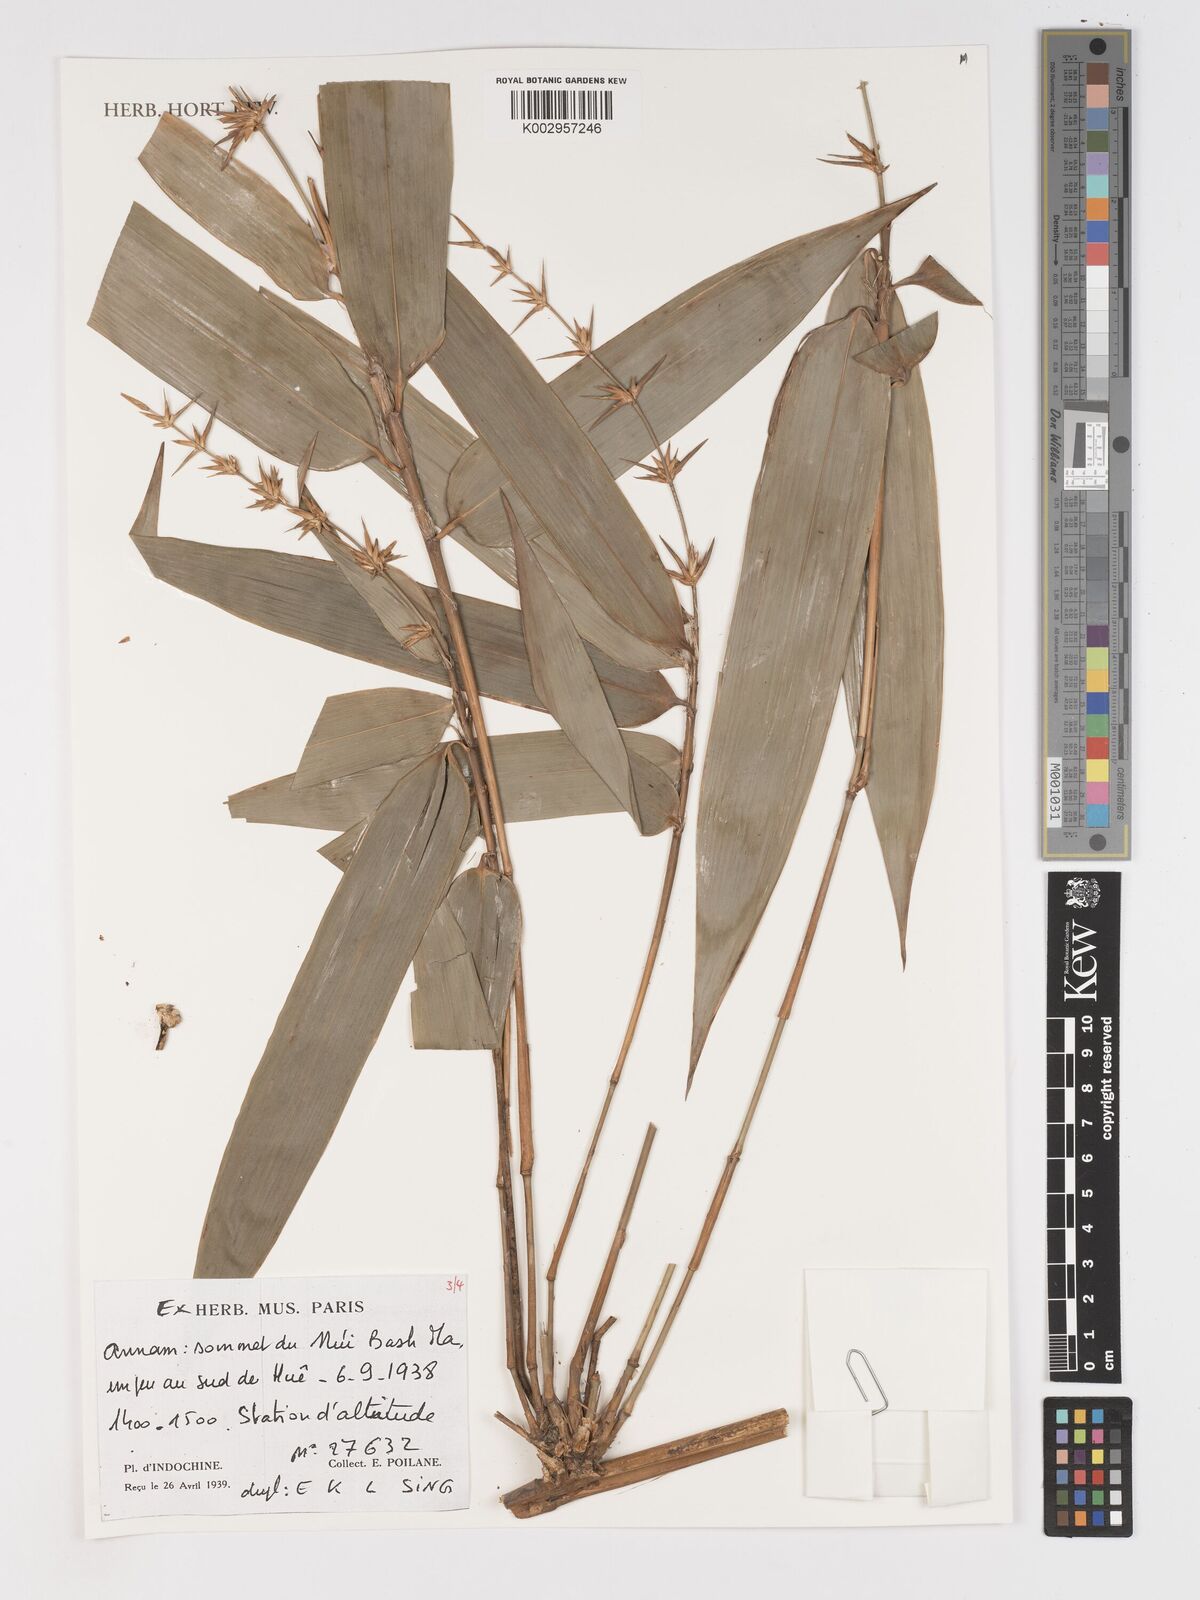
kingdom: Plantae
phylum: Tracheophyta
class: Liliopsida
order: Poales
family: Poaceae
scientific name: Poaceae
